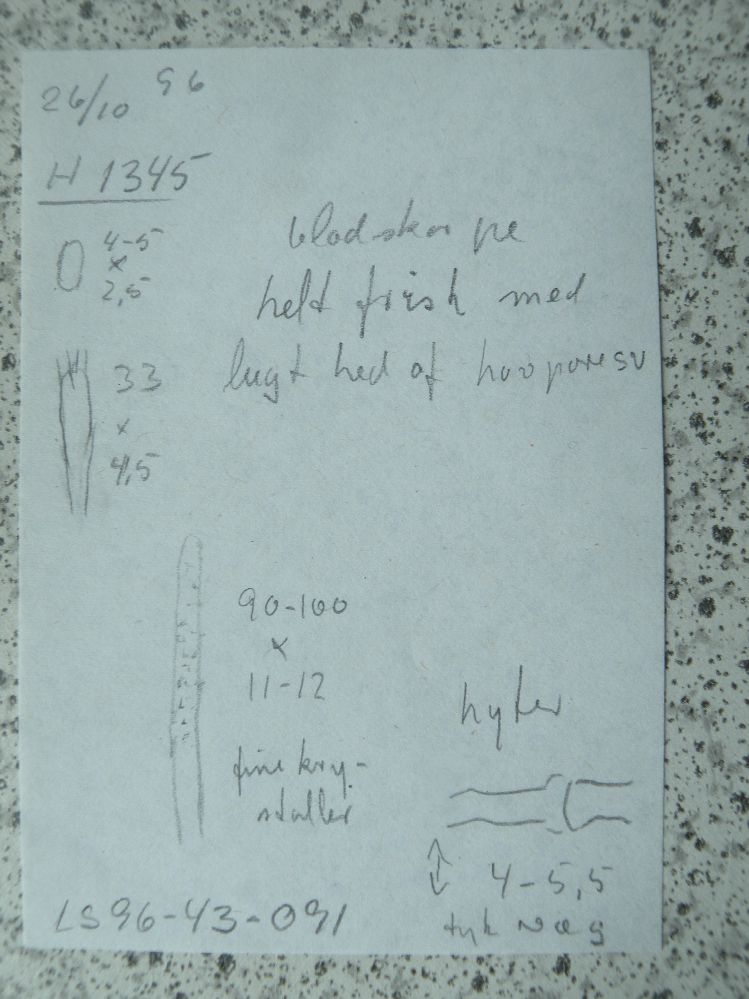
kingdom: Fungi
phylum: Basidiomycota
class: Agaricomycetes
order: Polyporales
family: Phanerochaetaceae
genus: Atheliachaete
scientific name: Atheliachaete sanguinea
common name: rødmende randtråd
